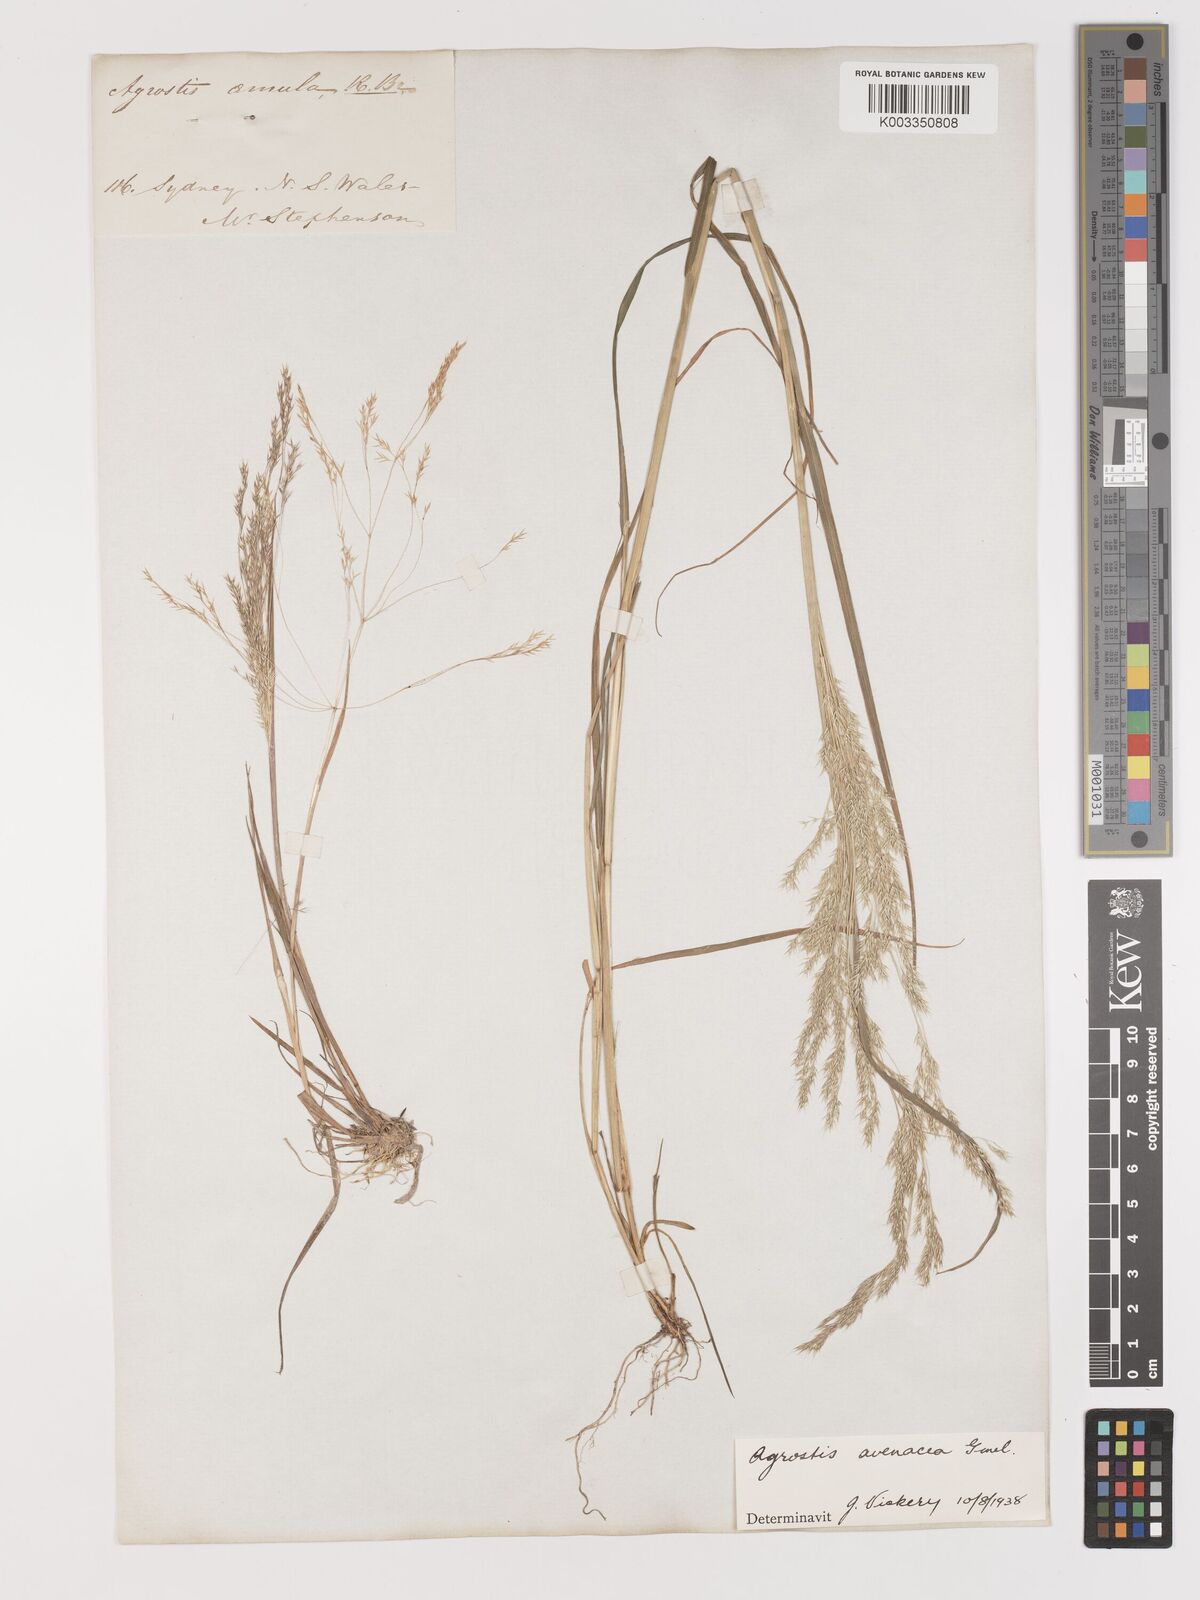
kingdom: Plantae
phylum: Tracheophyta
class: Liliopsida
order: Poales
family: Poaceae
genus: Lachnagrostis
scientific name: Lachnagrostis filiformis
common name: Bentgrass
